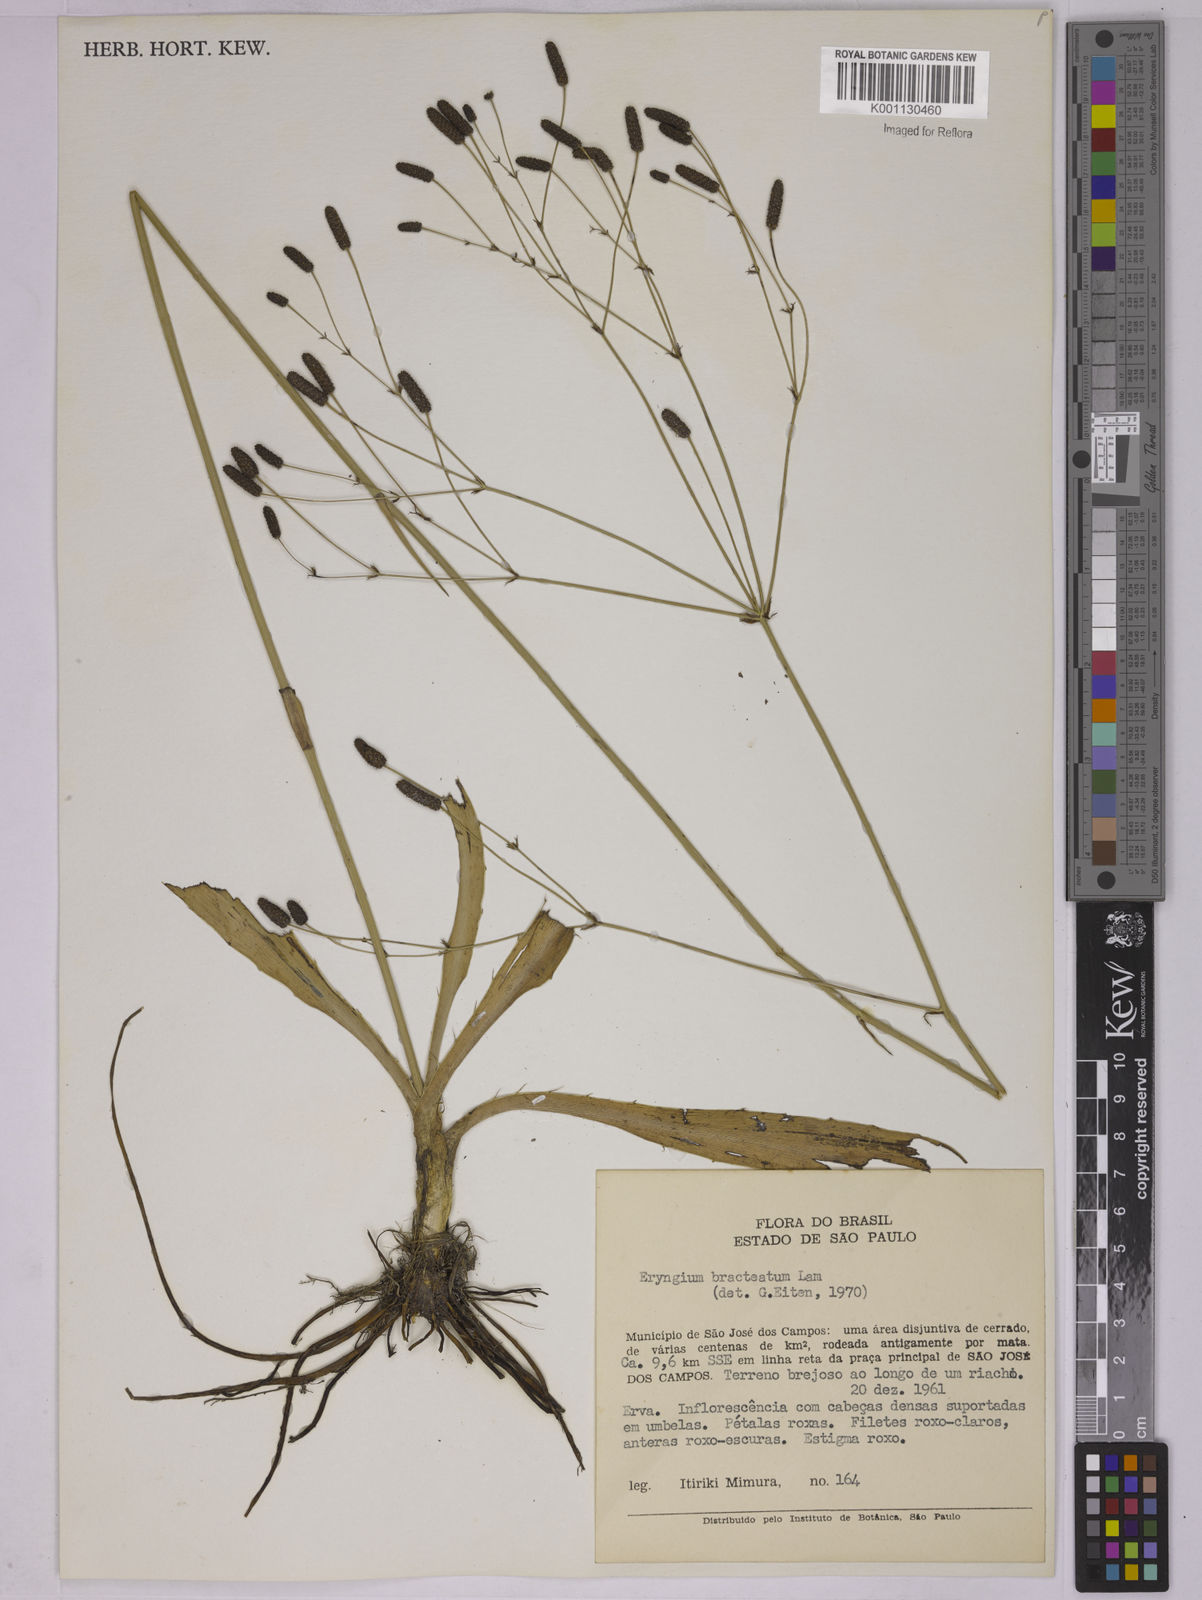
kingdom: Plantae
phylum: Tracheophyta
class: Magnoliopsida
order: Apiales
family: Apiaceae
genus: Eryngium
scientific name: Eryngium ebracteatum
